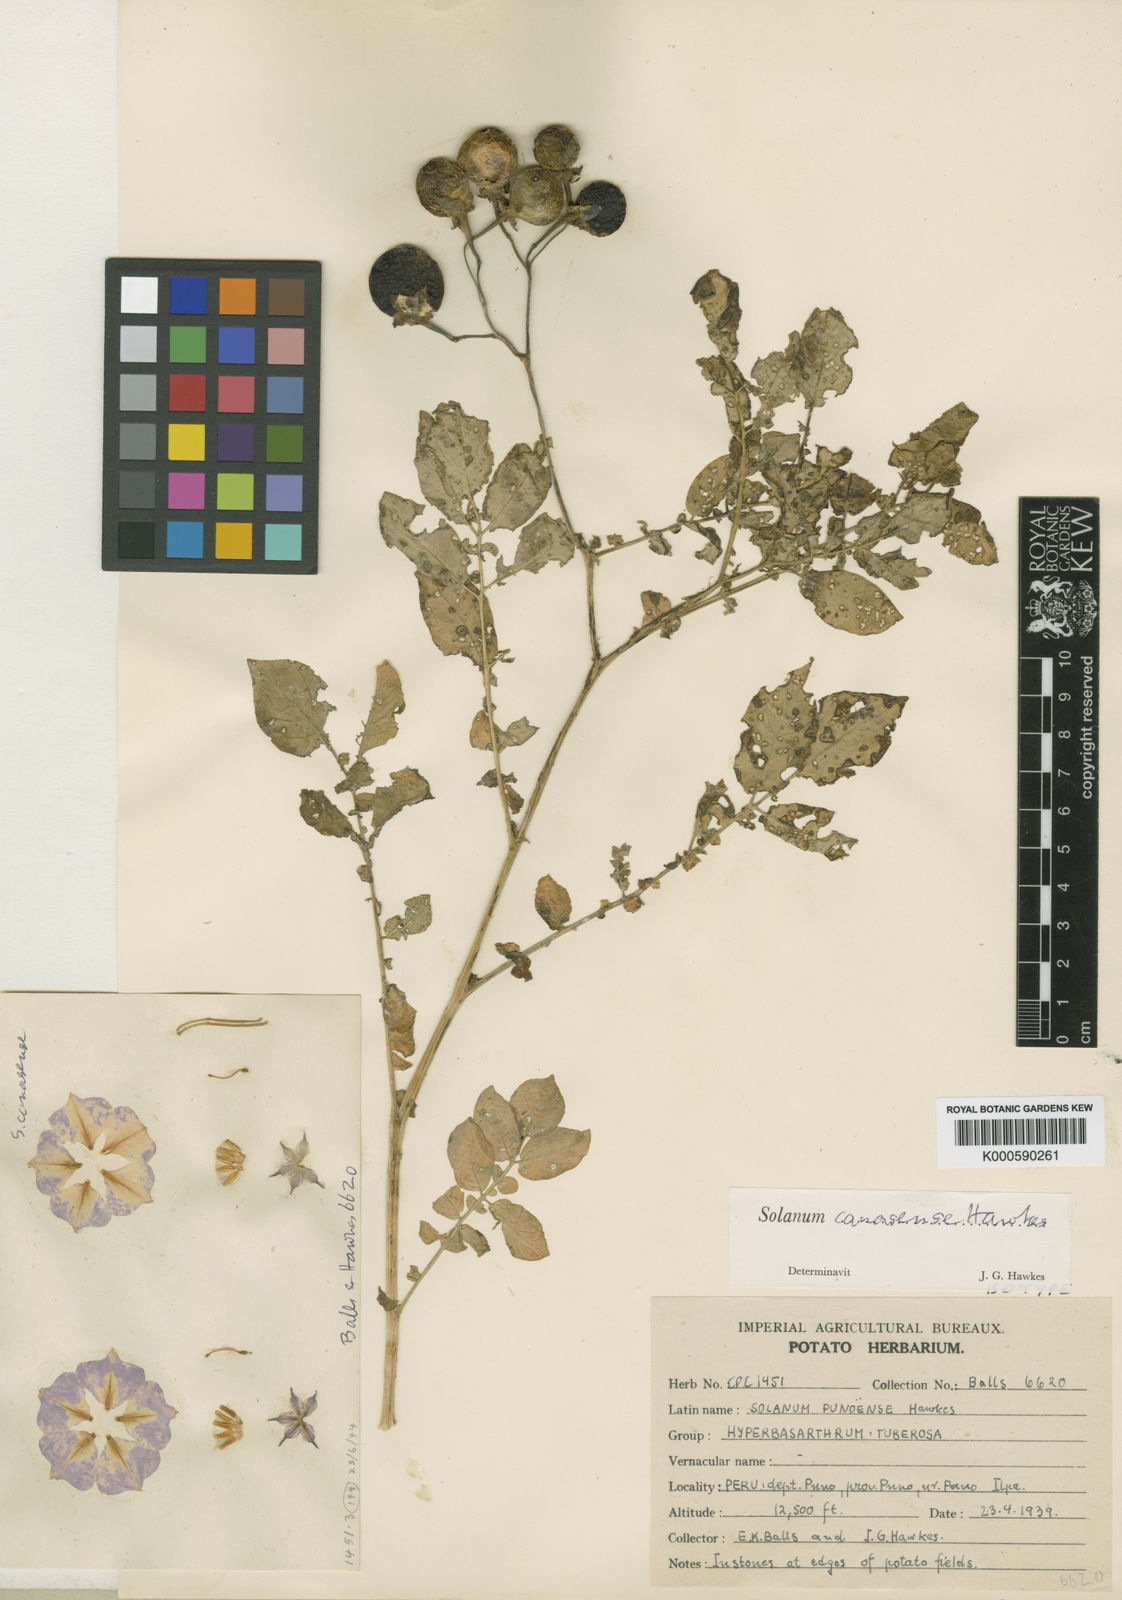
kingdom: Plantae
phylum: Tracheophyta
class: Magnoliopsida
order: Solanales
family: Solanaceae
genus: Solanum
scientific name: Solanum candolleanum
